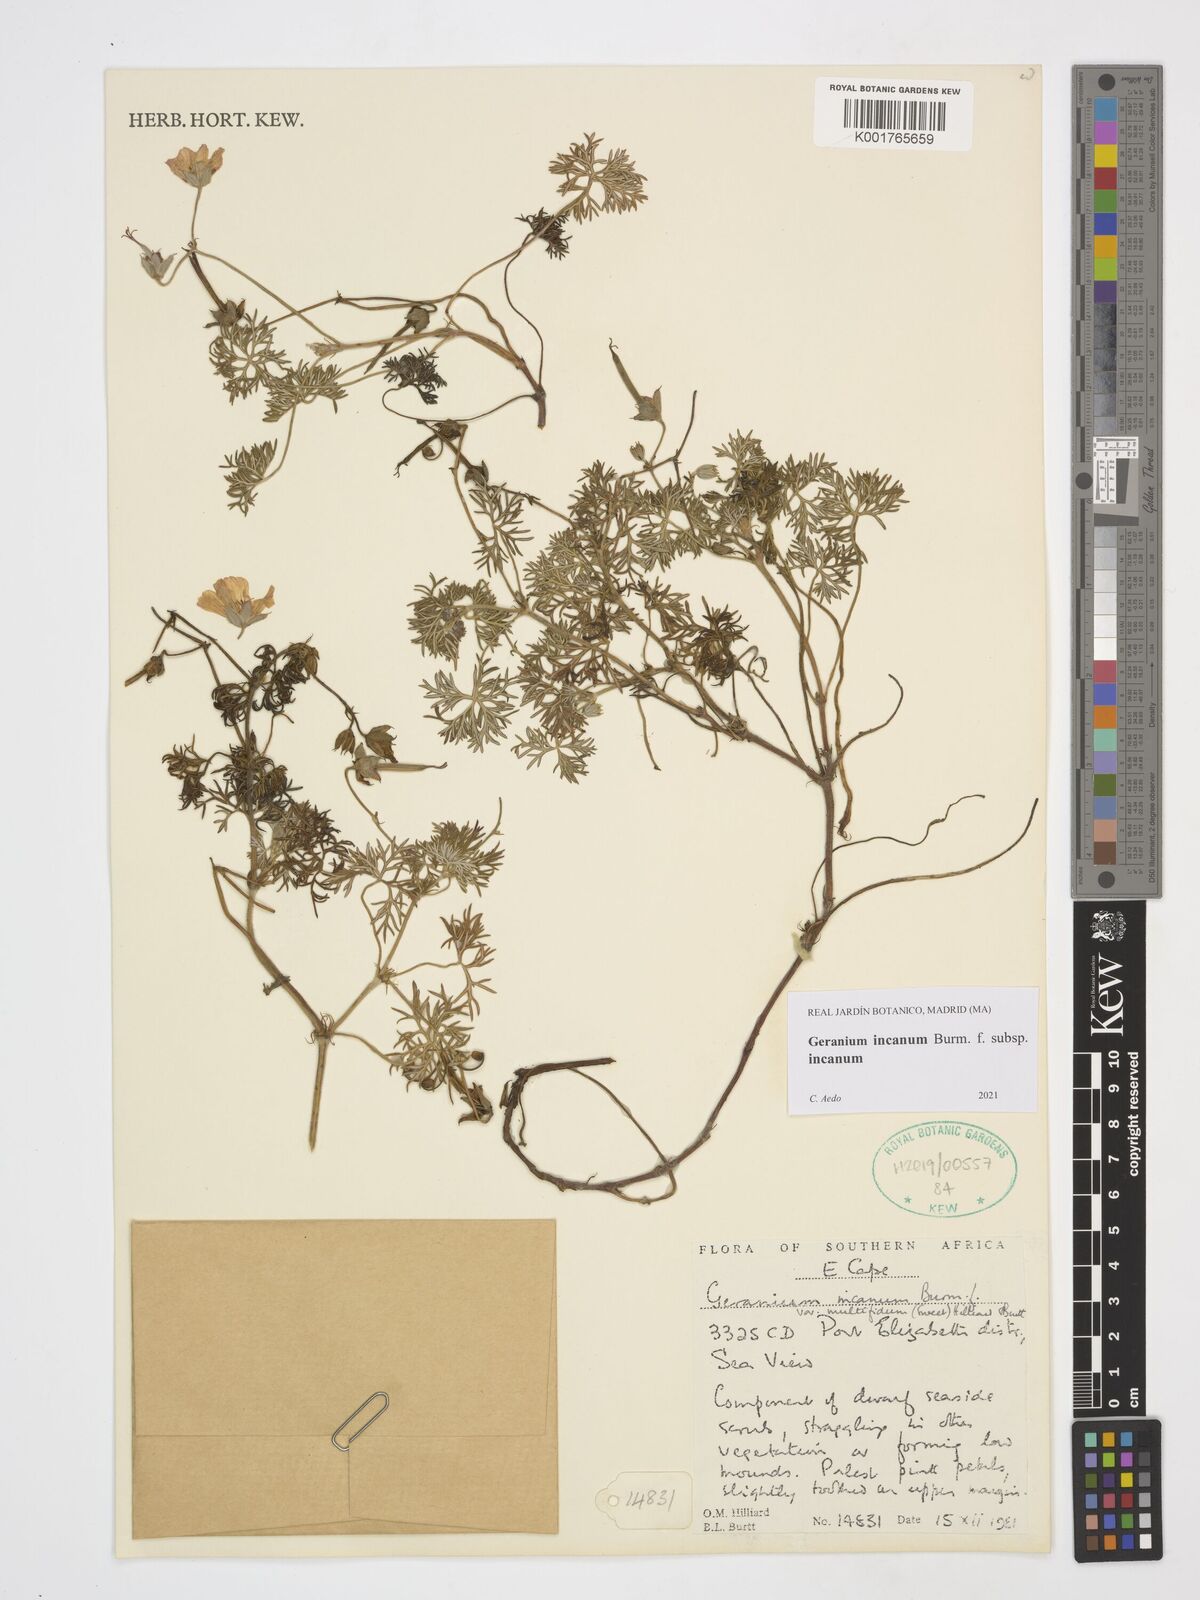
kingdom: Plantae
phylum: Tracheophyta
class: Magnoliopsida
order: Geraniales
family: Geraniaceae
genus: Geranium
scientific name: Geranium incanum
